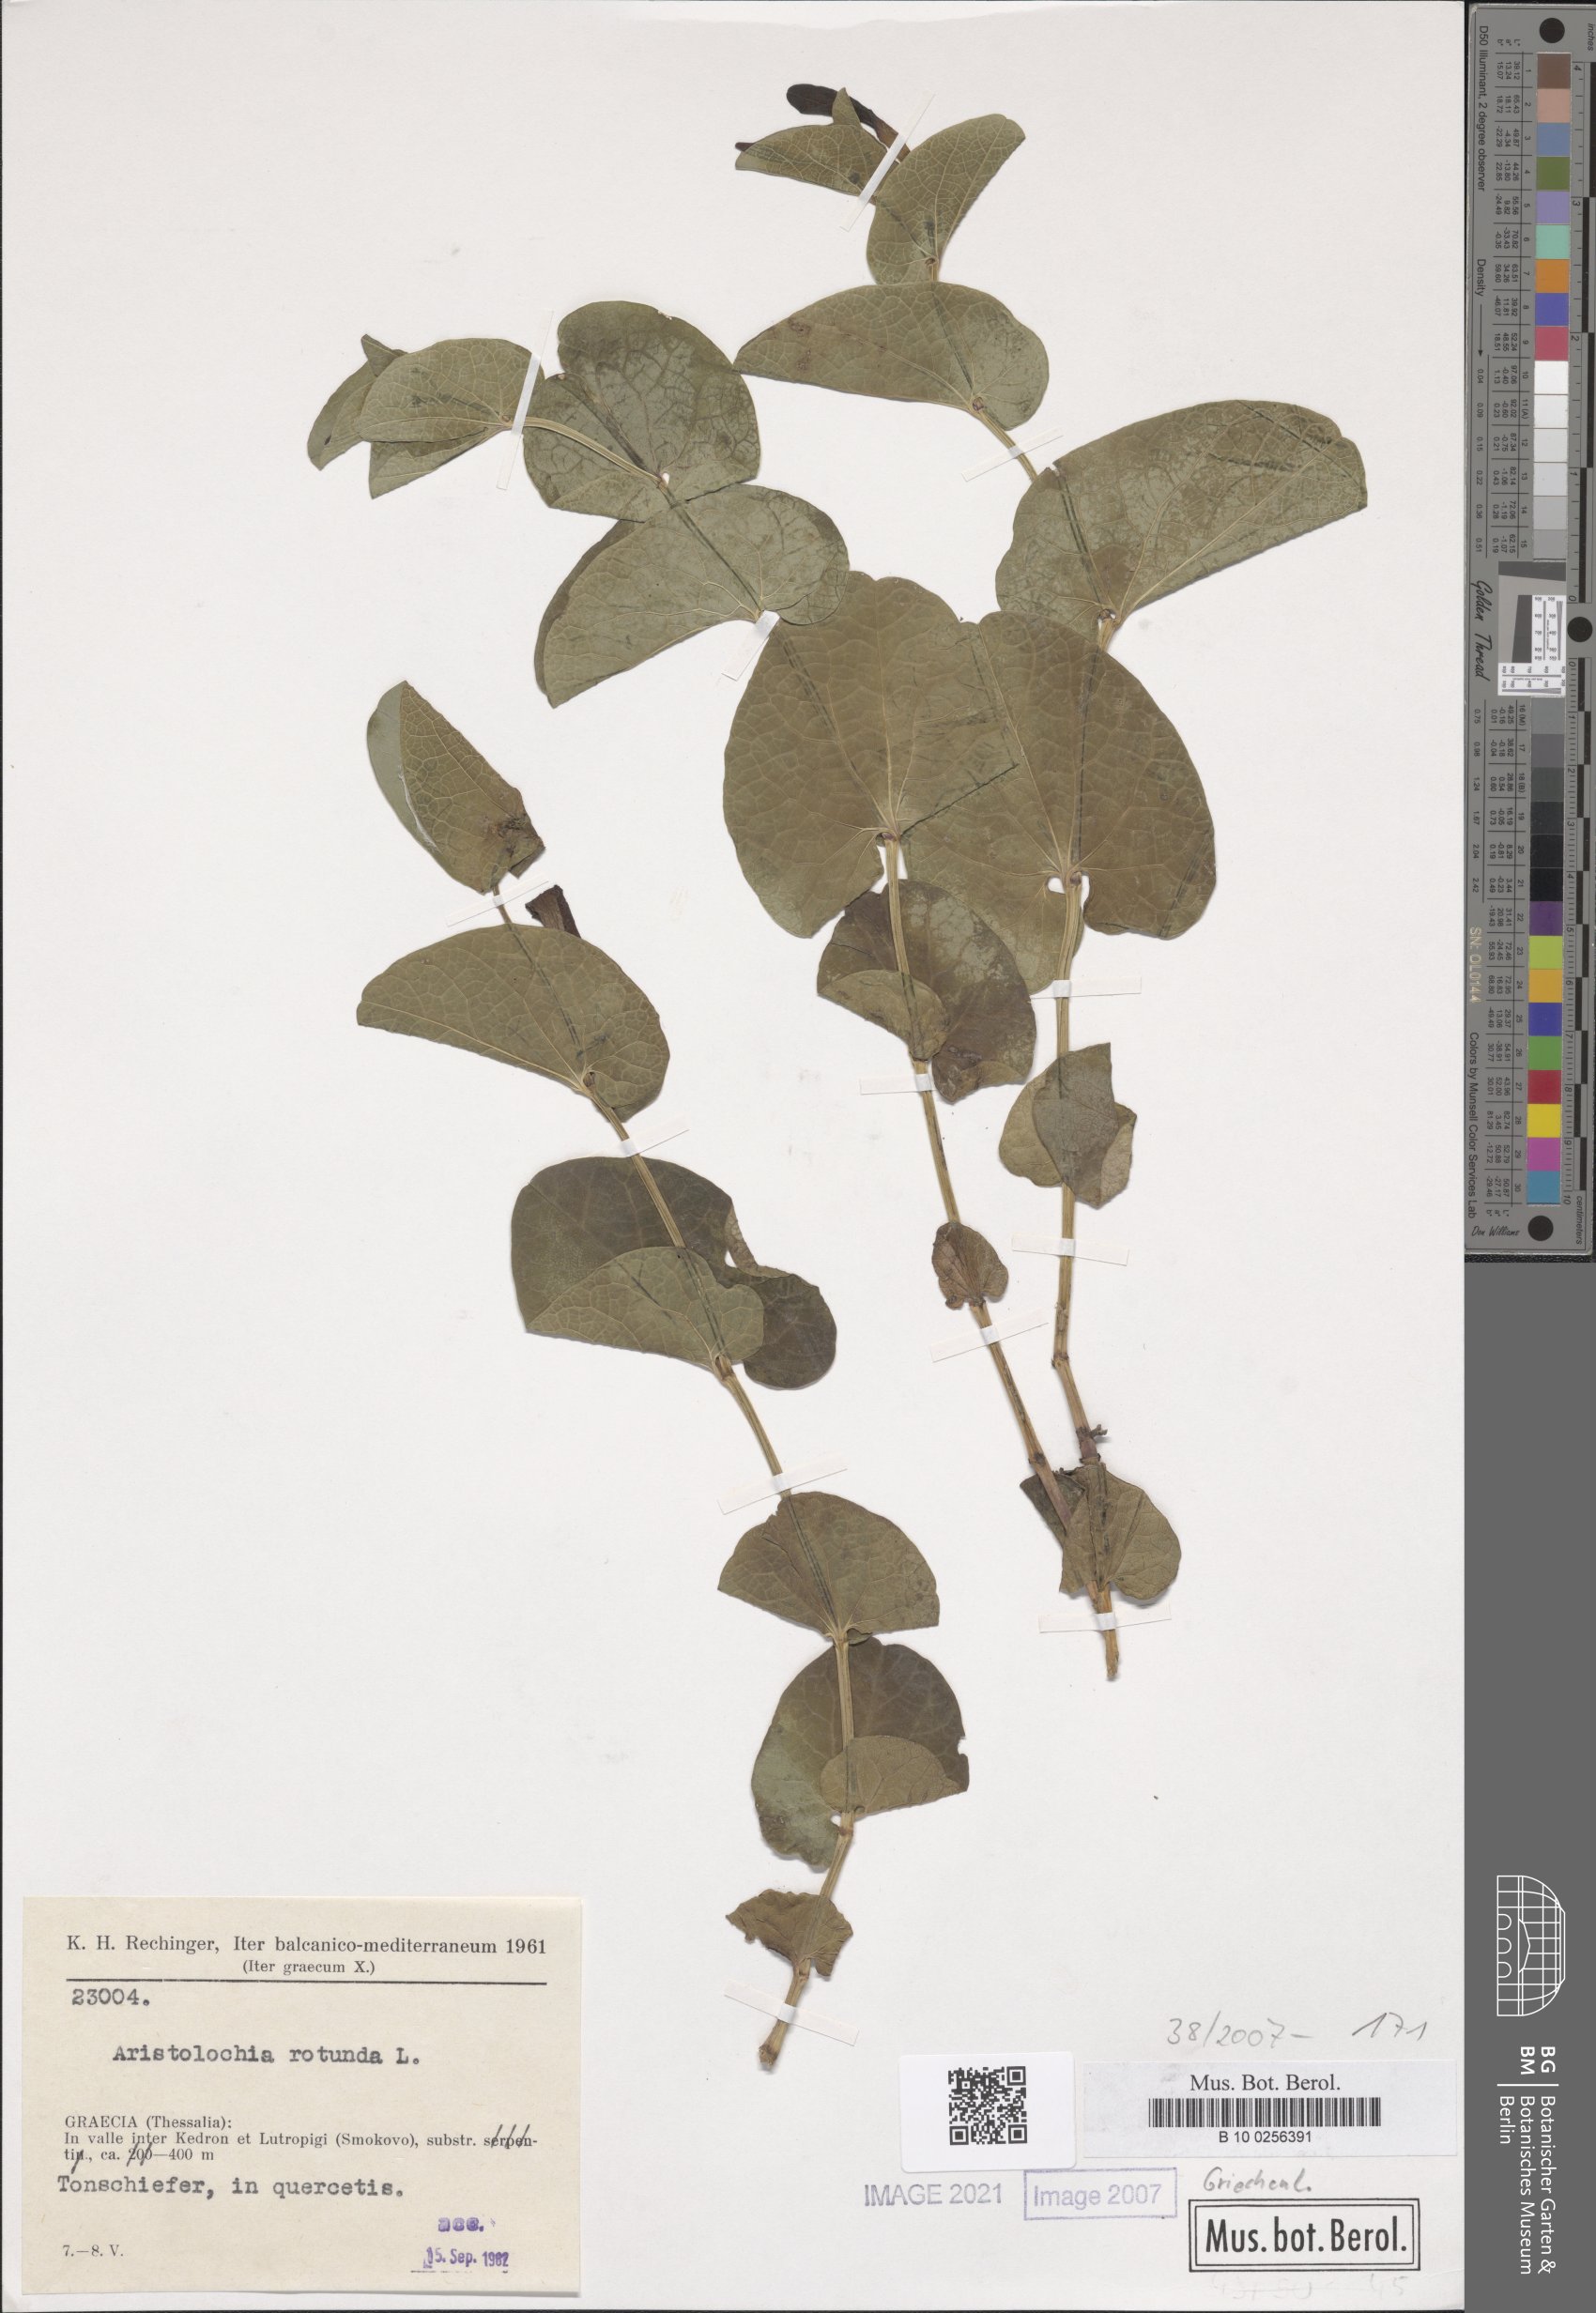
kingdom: Plantae
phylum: Tracheophyta
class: Magnoliopsida
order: Piperales
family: Aristolochiaceae
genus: Aristolochia
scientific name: Aristolochia rotunda
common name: Smearwort
